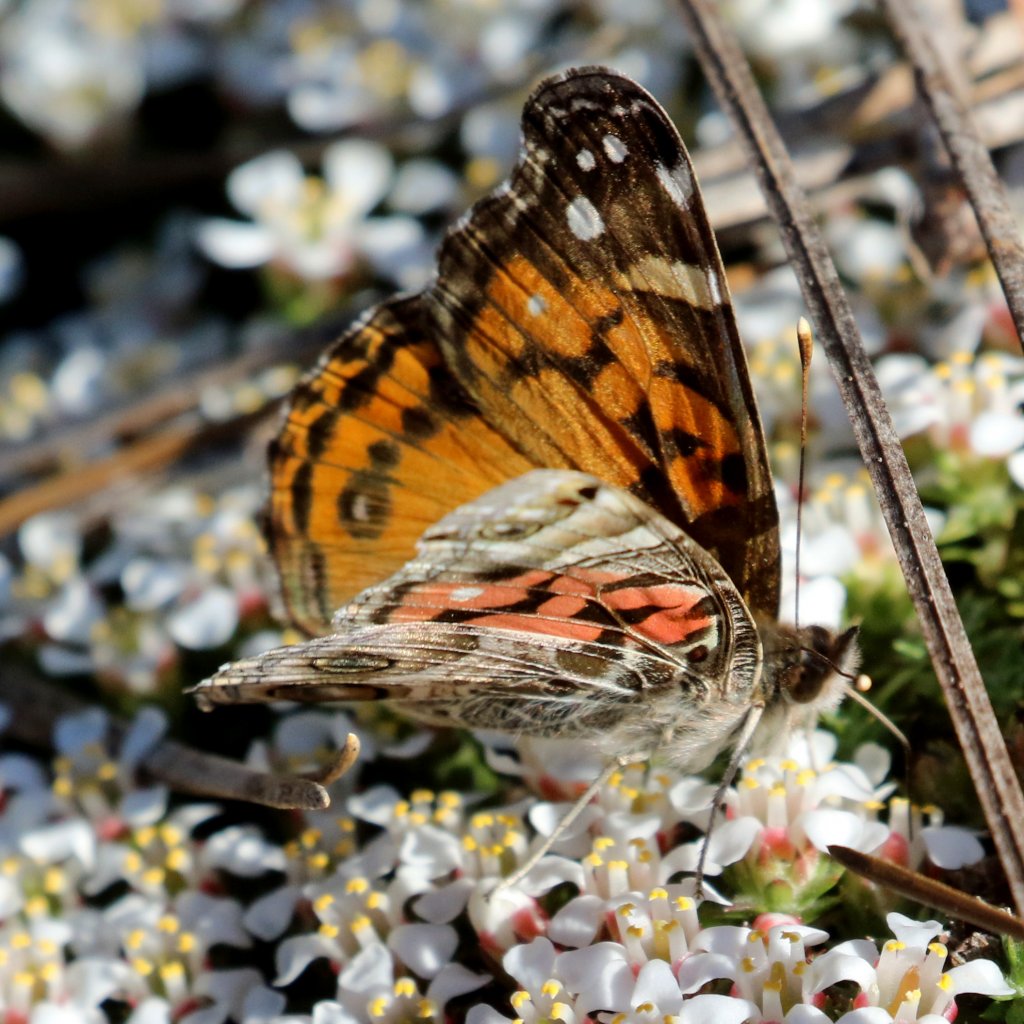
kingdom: Animalia
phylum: Arthropoda
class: Insecta
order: Lepidoptera
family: Nymphalidae
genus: Vanessa
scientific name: Vanessa virginiensis
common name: American Lady
